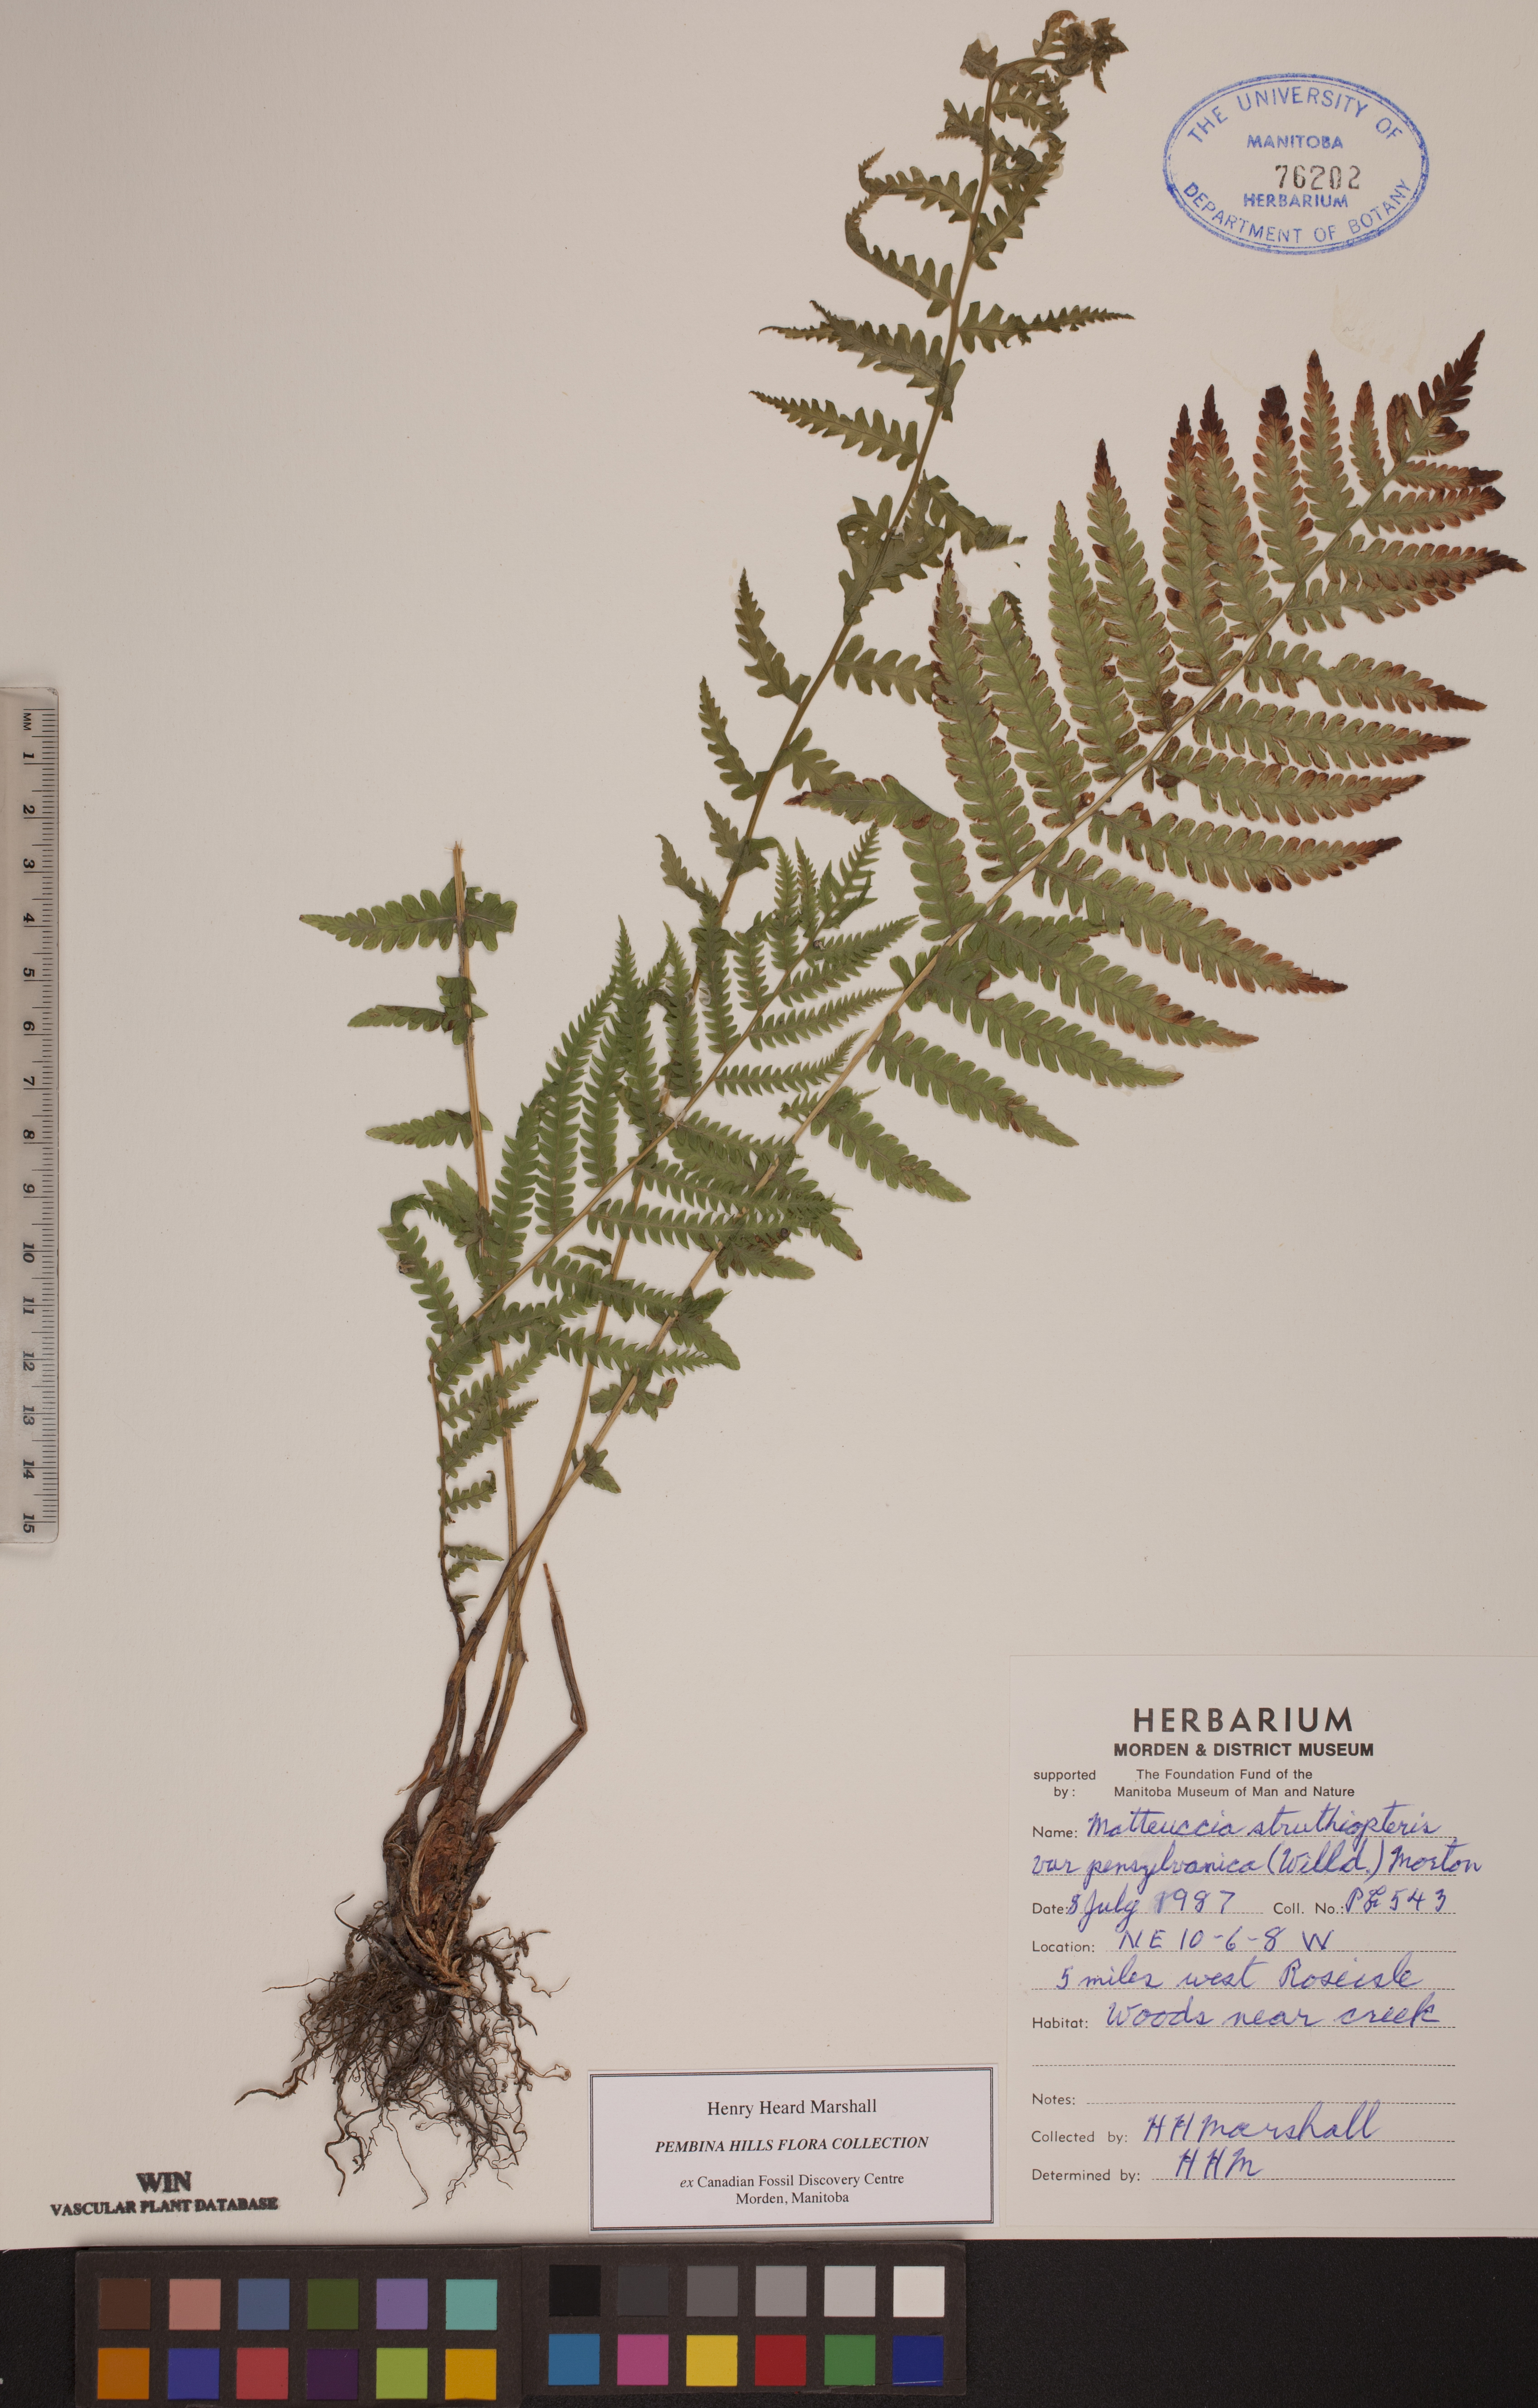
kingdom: Plantae
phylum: Tracheophyta
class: Polypodiopsida
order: Polypodiales
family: Onocleaceae
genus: Matteuccia
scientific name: Matteuccia pensylvanica
